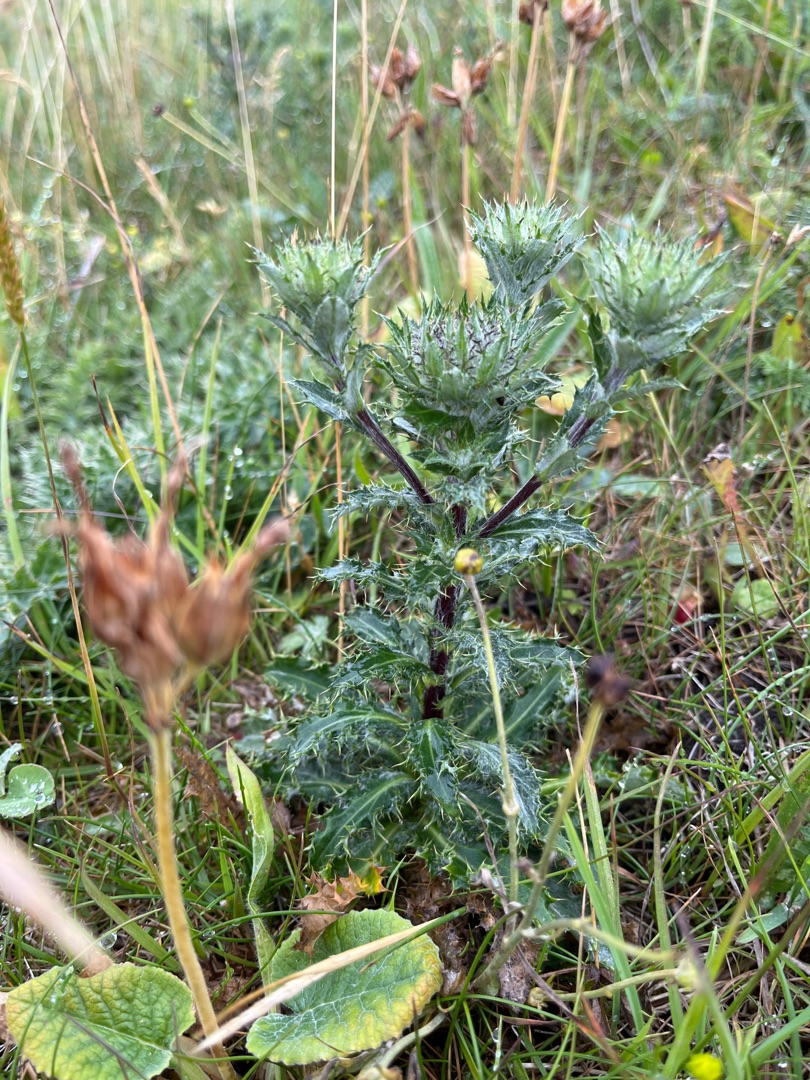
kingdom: Plantae
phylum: Tracheophyta
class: Magnoliopsida
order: Asterales
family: Asteraceae
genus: Carlina
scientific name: Carlina vulgaris
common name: Bakketidsel
